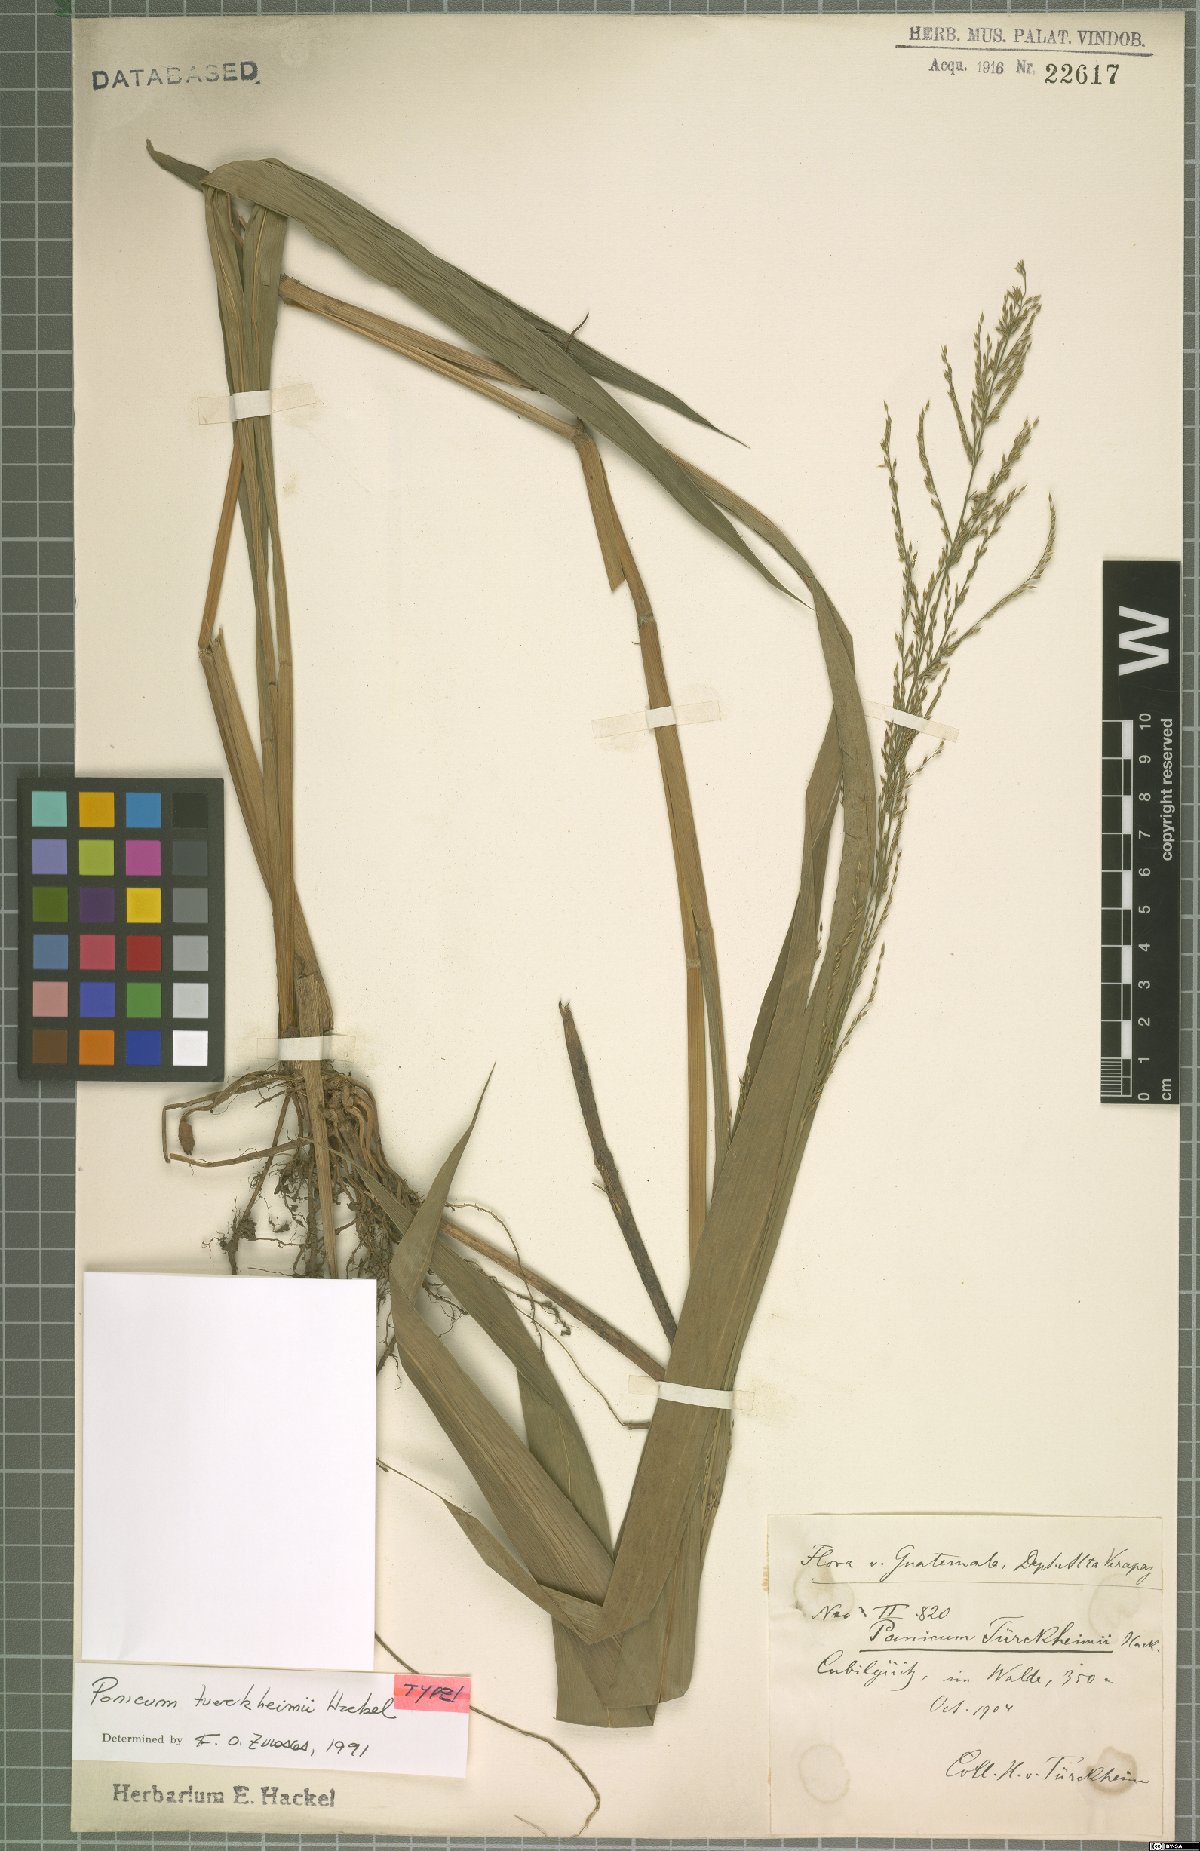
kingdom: Plantae
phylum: Tracheophyta
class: Liliopsida
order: Poales
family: Poaceae
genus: Aakia
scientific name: Aakia tuerckheimii
